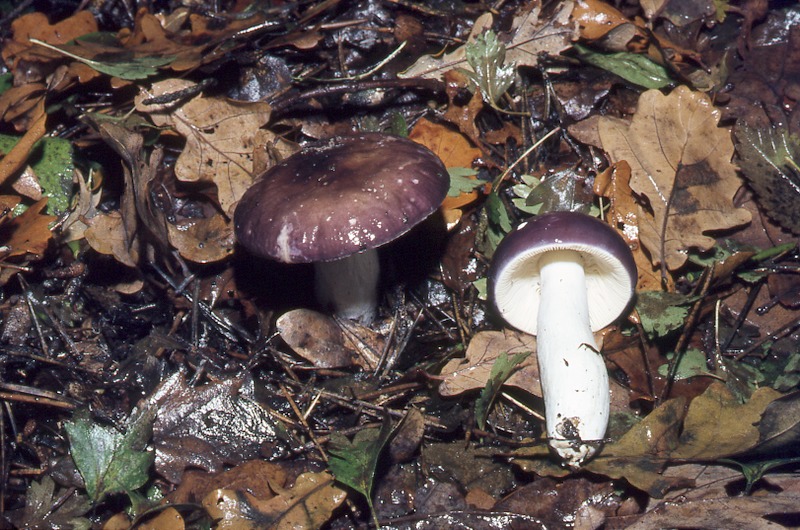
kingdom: Fungi
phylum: Basidiomycota
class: Agaricomycetes
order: Russulales
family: Russulaceae
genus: Russula
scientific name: Russula caerulea
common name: Humpback brittlegill
